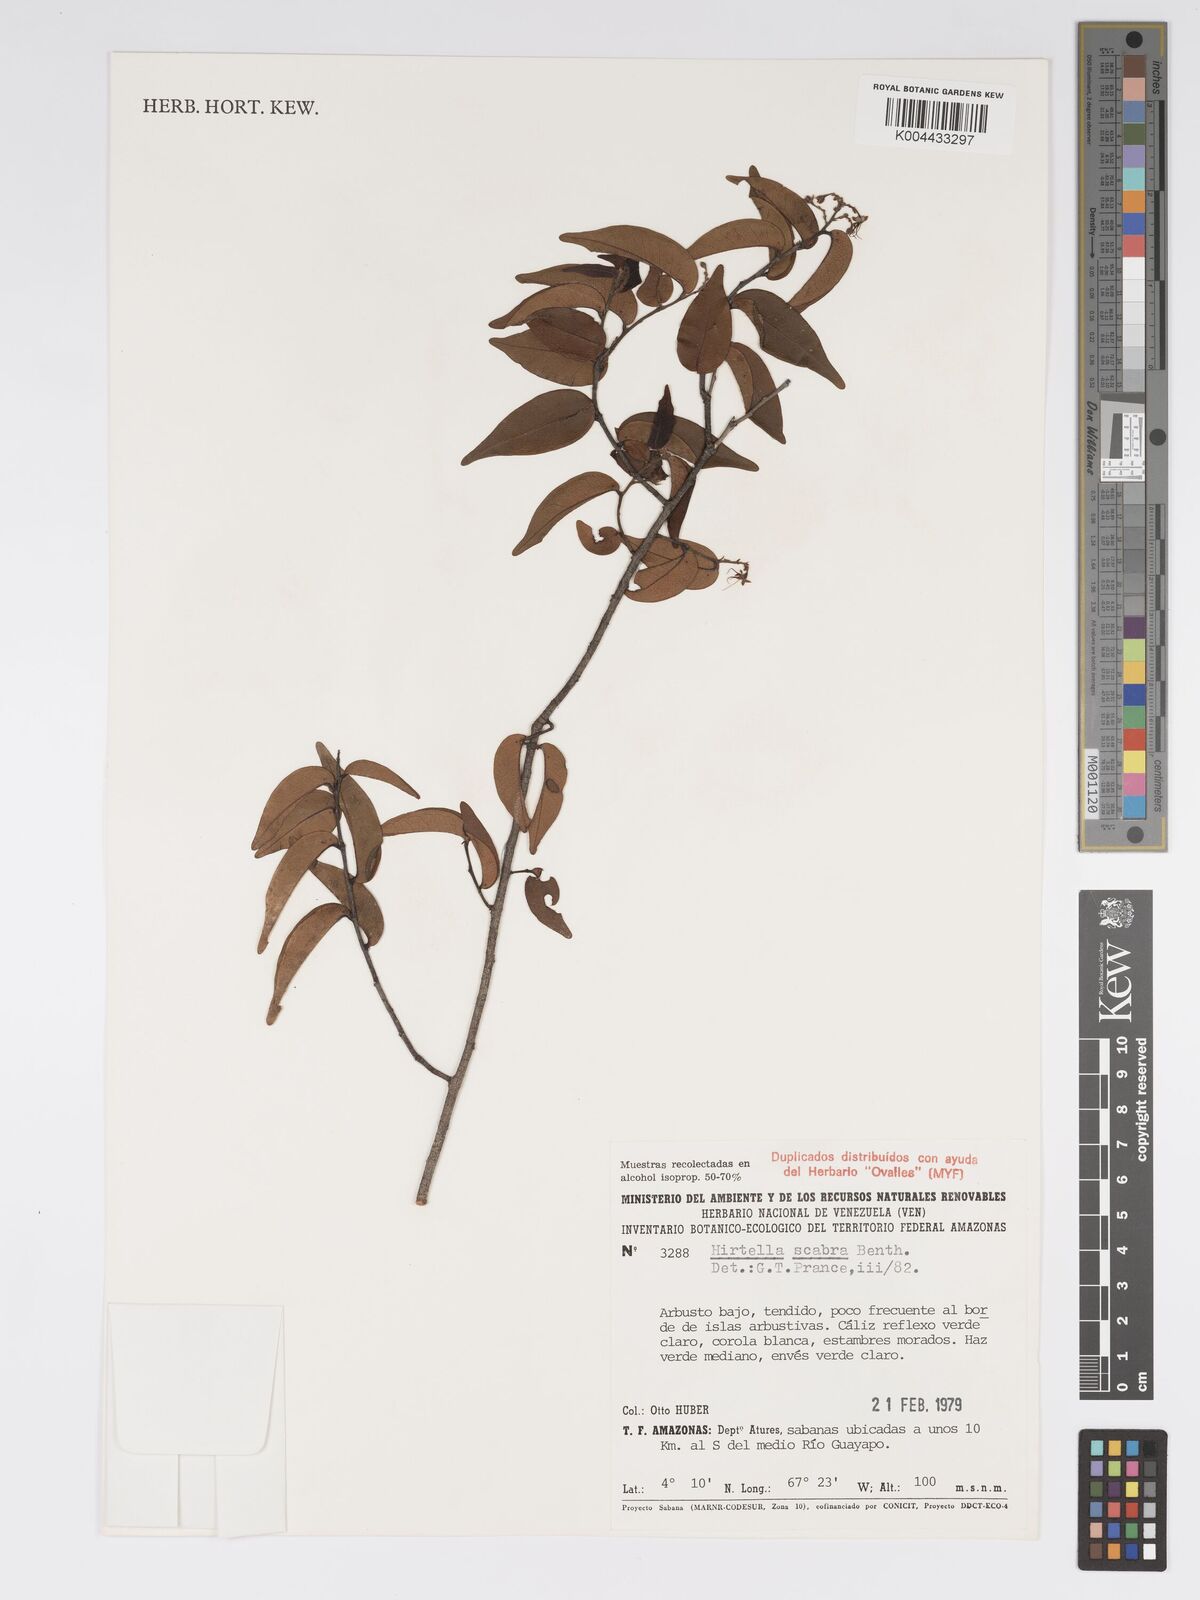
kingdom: Plantae
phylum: Tracheophyta
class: Magnoliopsida
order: Malpighiales
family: Chrysobalanaceae
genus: Hirtella
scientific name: Hirtella scabra
